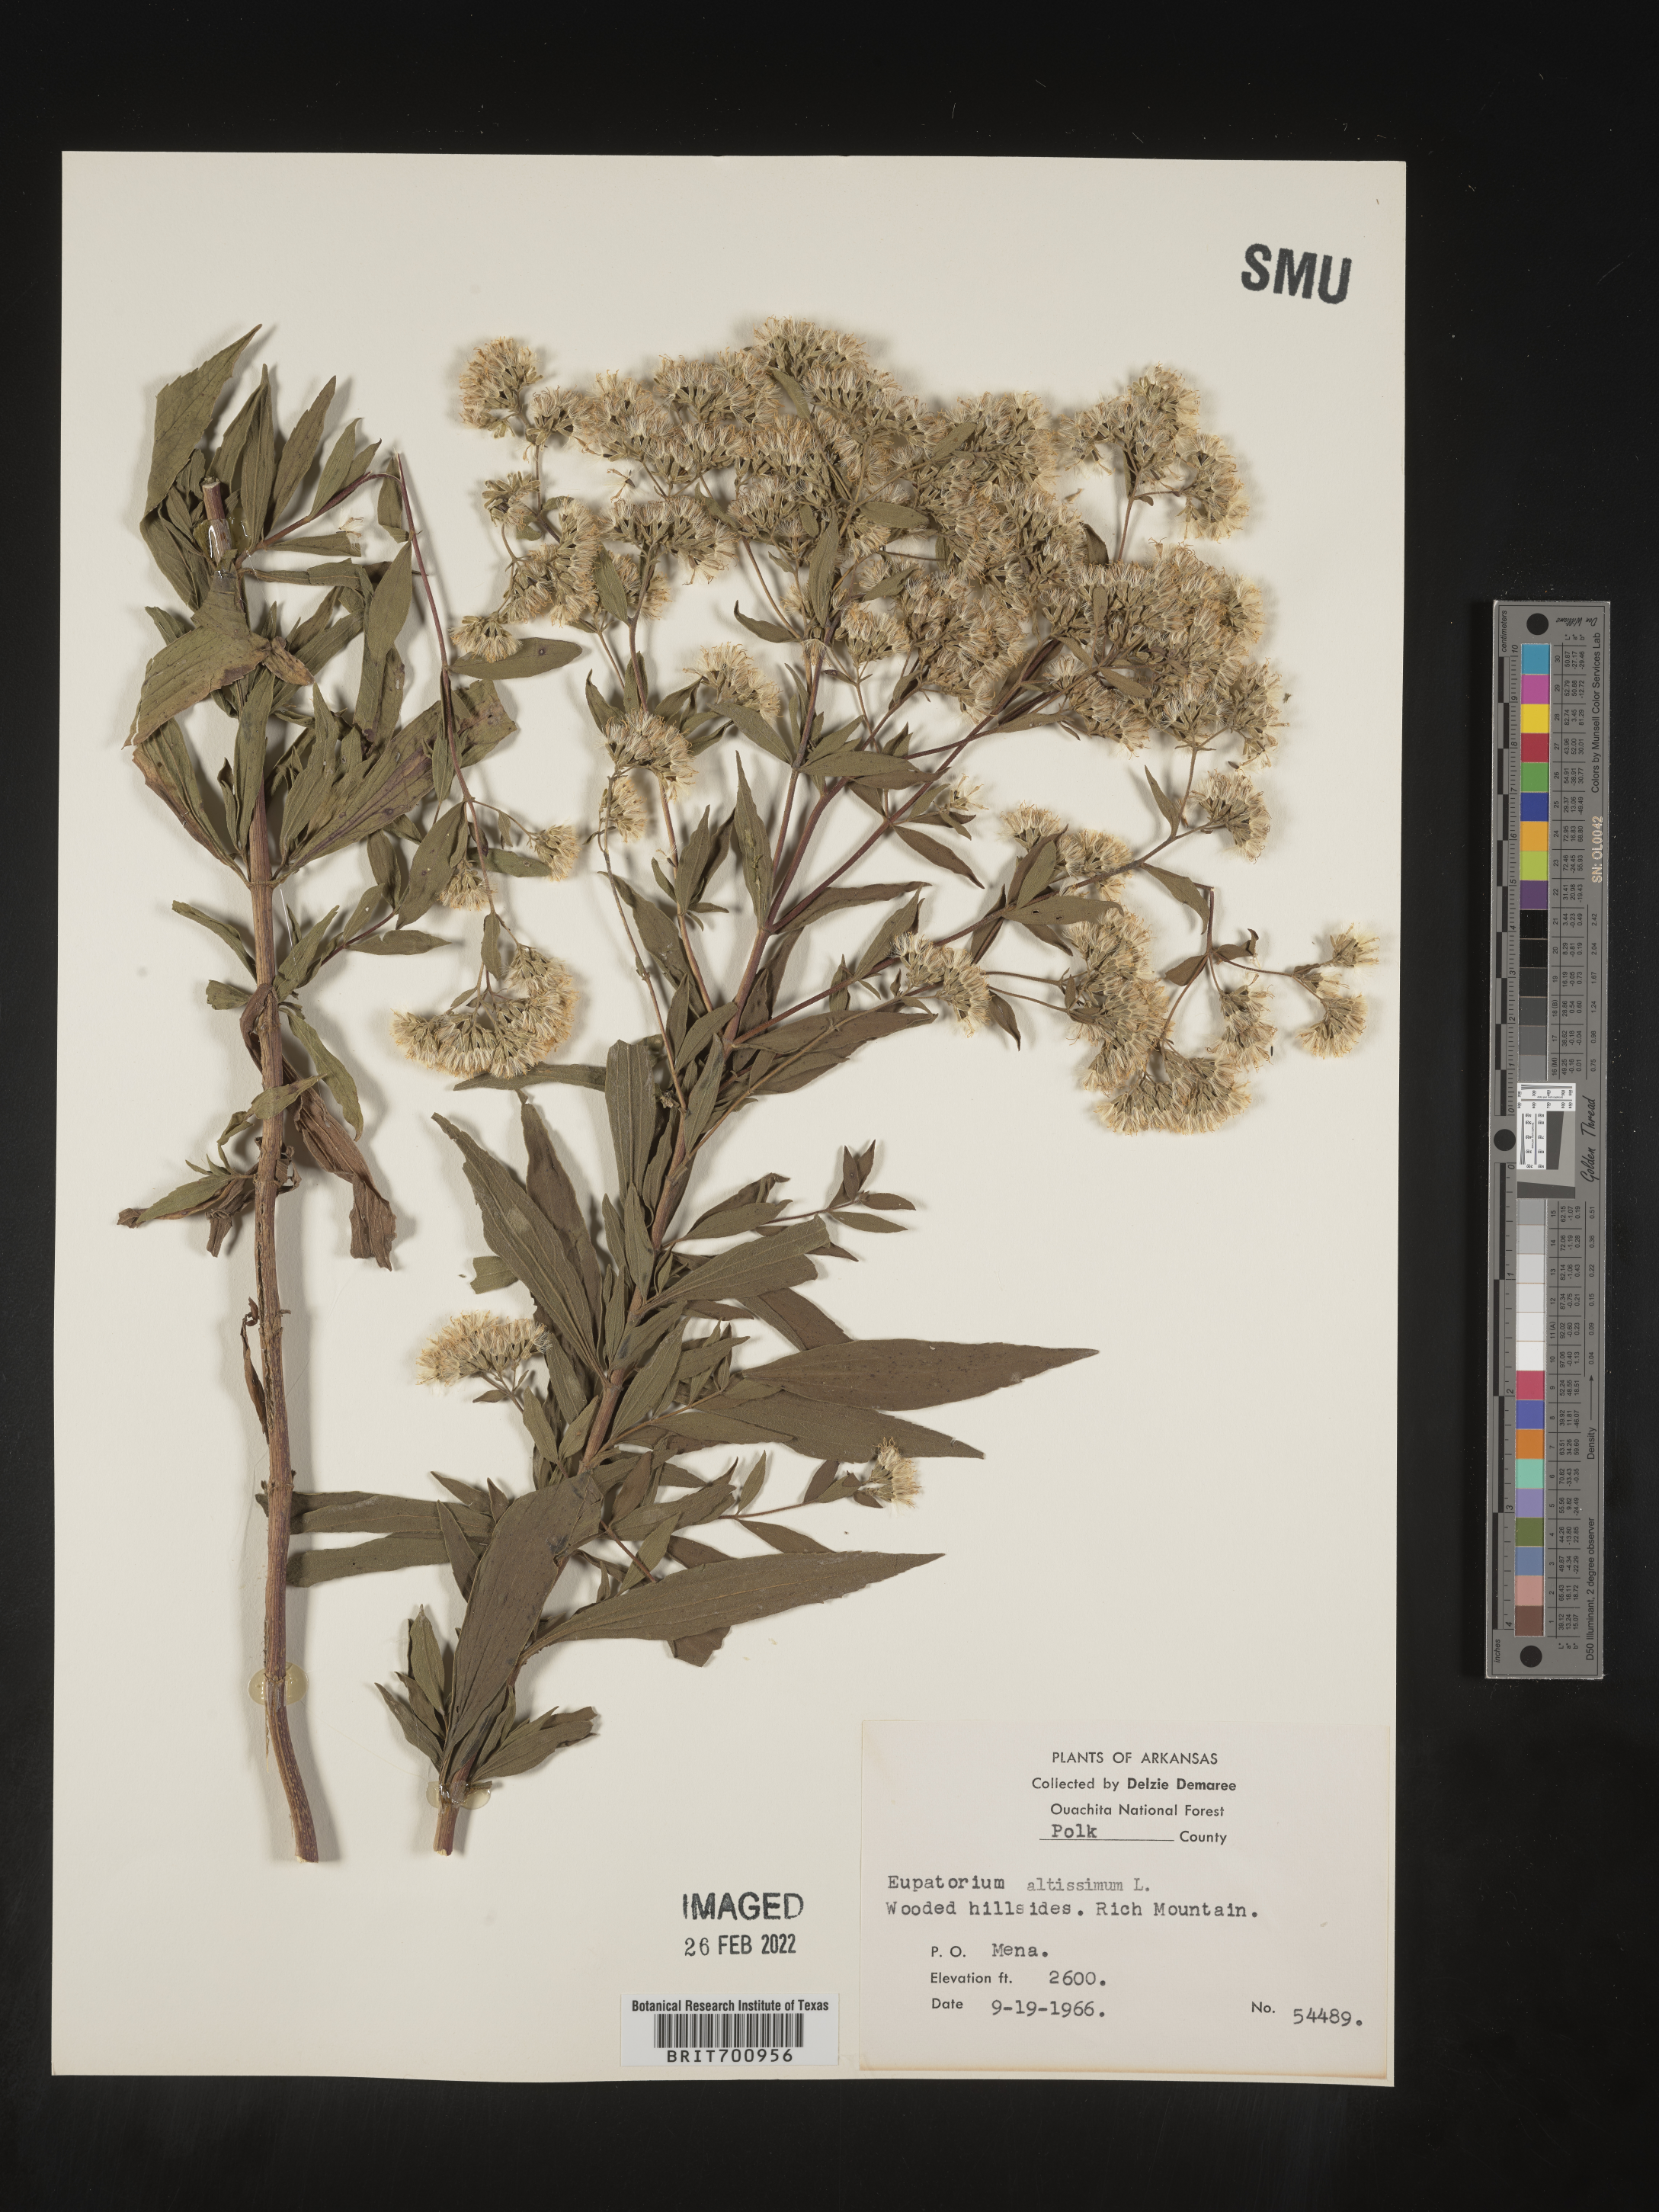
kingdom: Plantae
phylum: Tracheophyta
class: Magnoliopsida
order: Asterales
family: Asteraceae
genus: Eupatorium
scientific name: Eupatorium altissimum
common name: Tall thoroughwort
